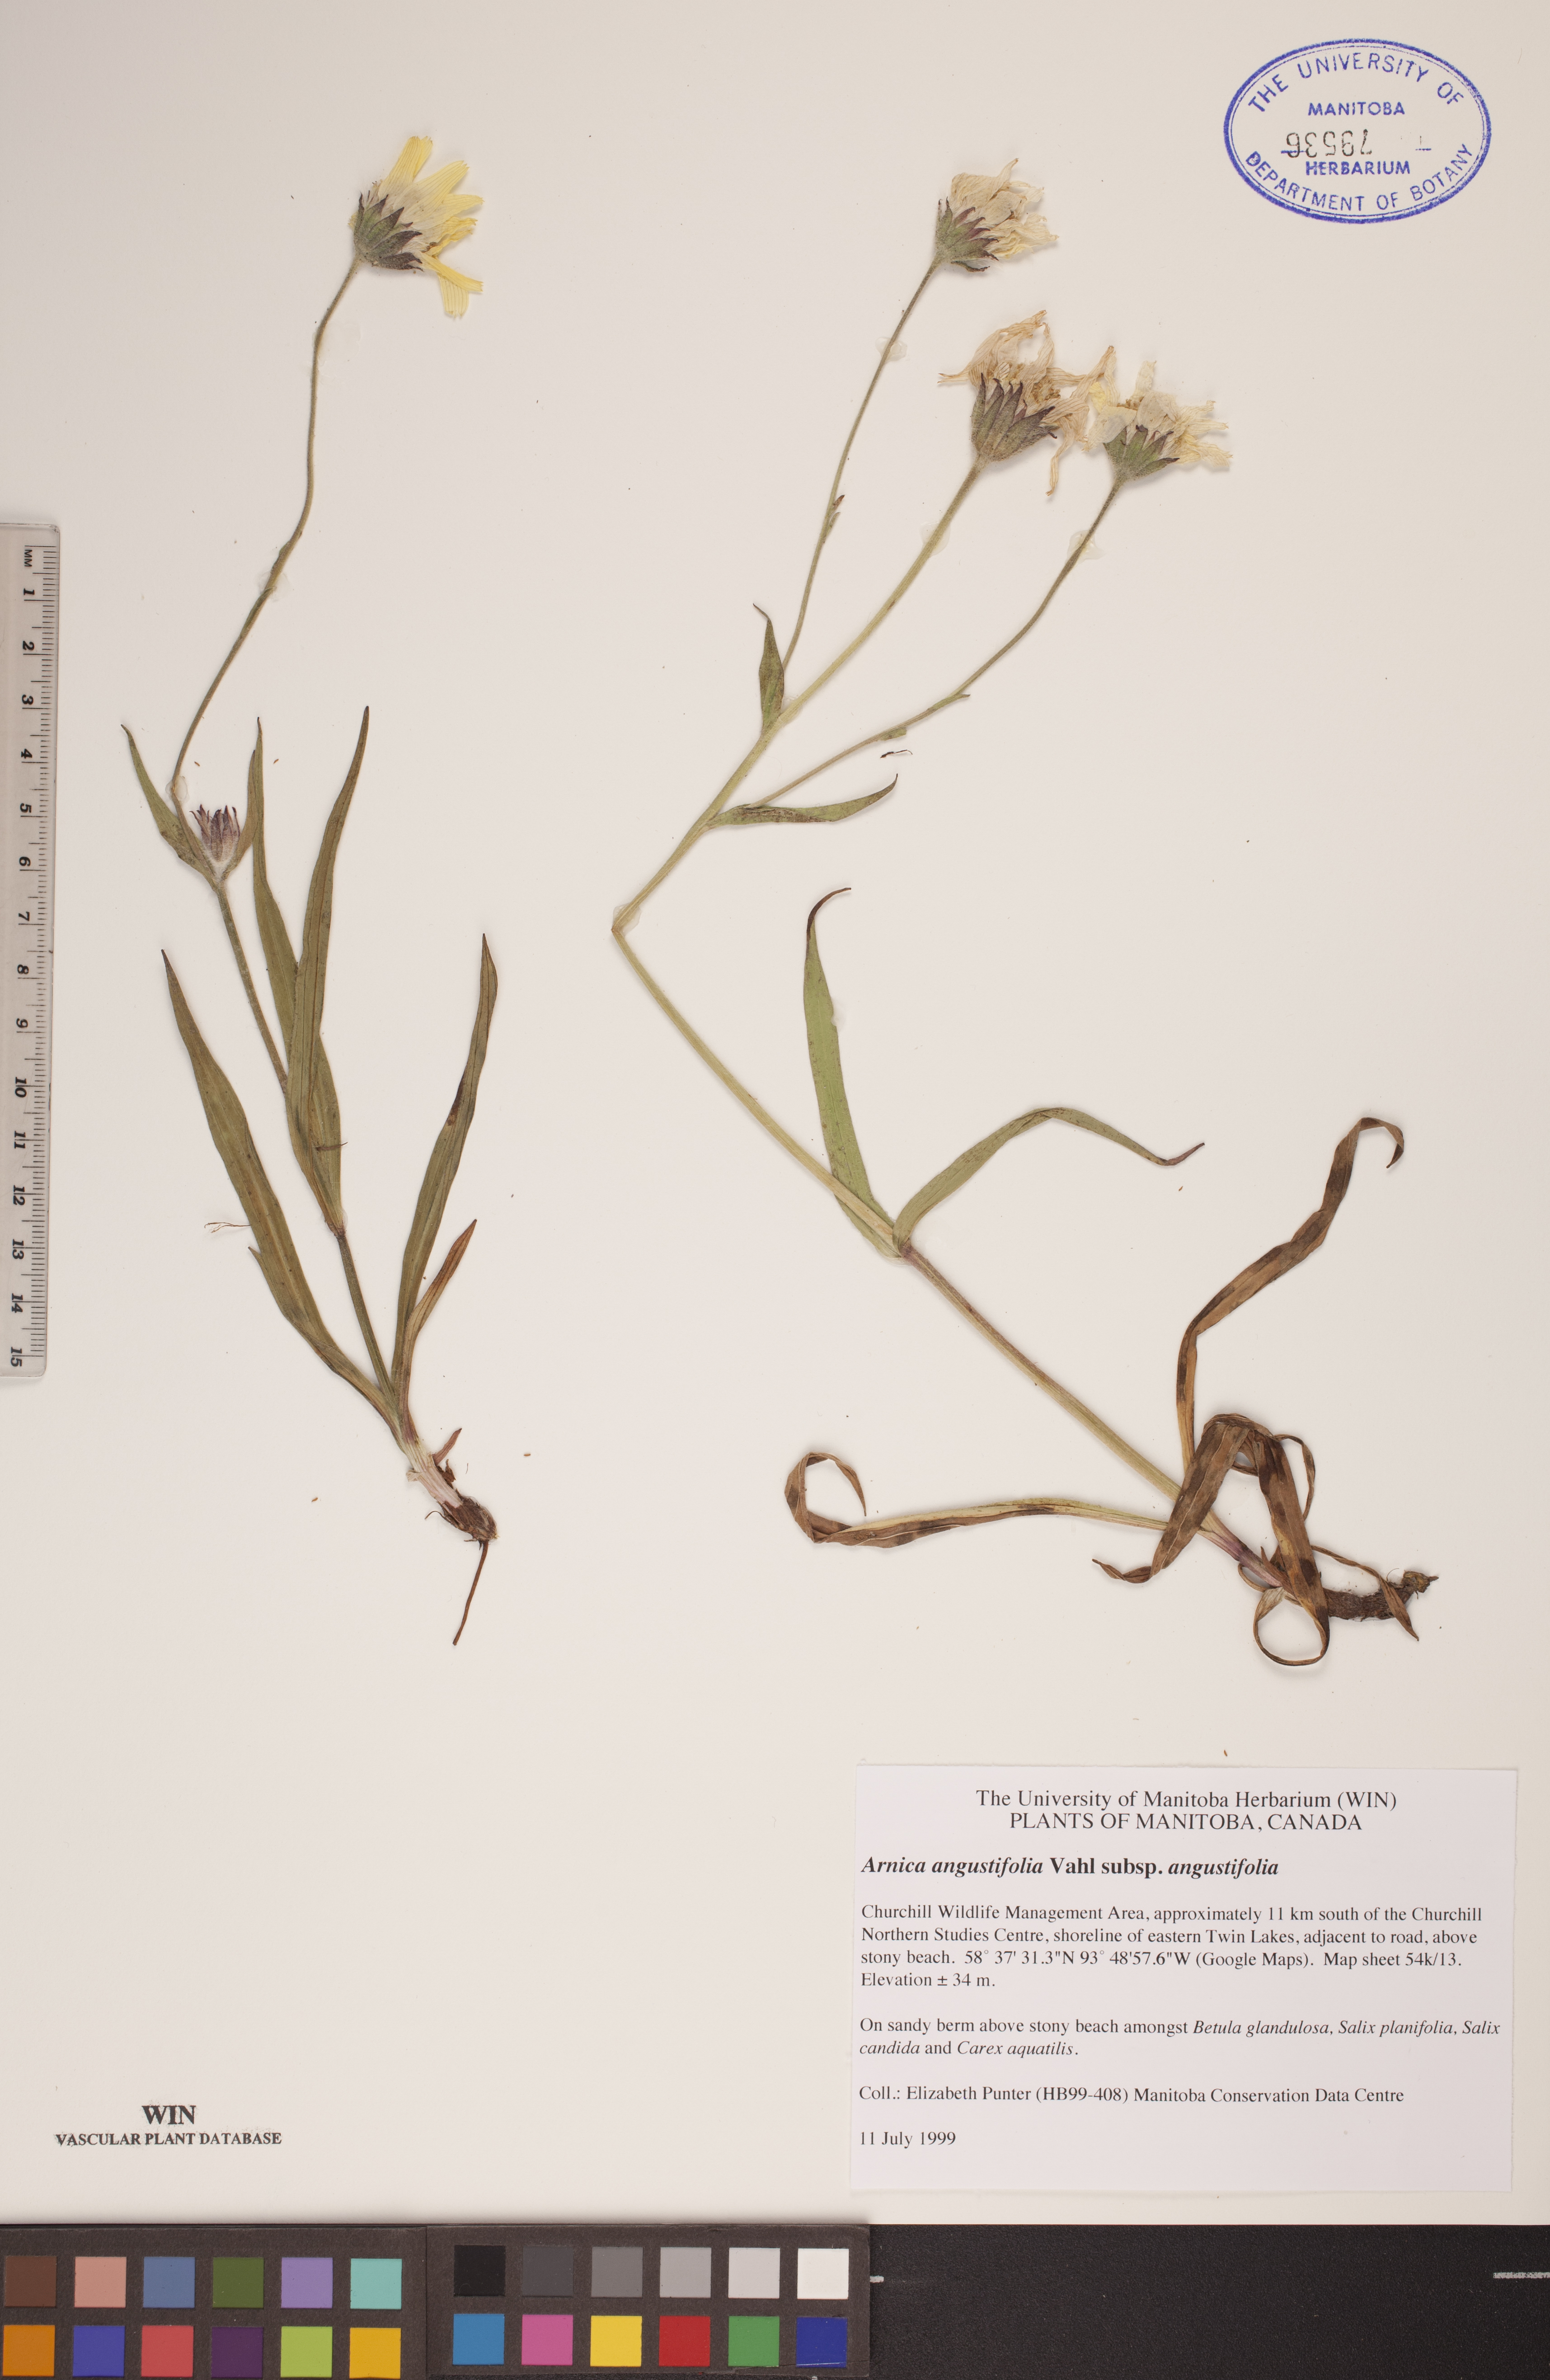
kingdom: Plantae
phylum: Tracheophyta
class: Magnoliopsida
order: Asterales
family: Asteraceae
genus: Arnica
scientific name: Arnica angustifolia
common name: Arctic arnica
